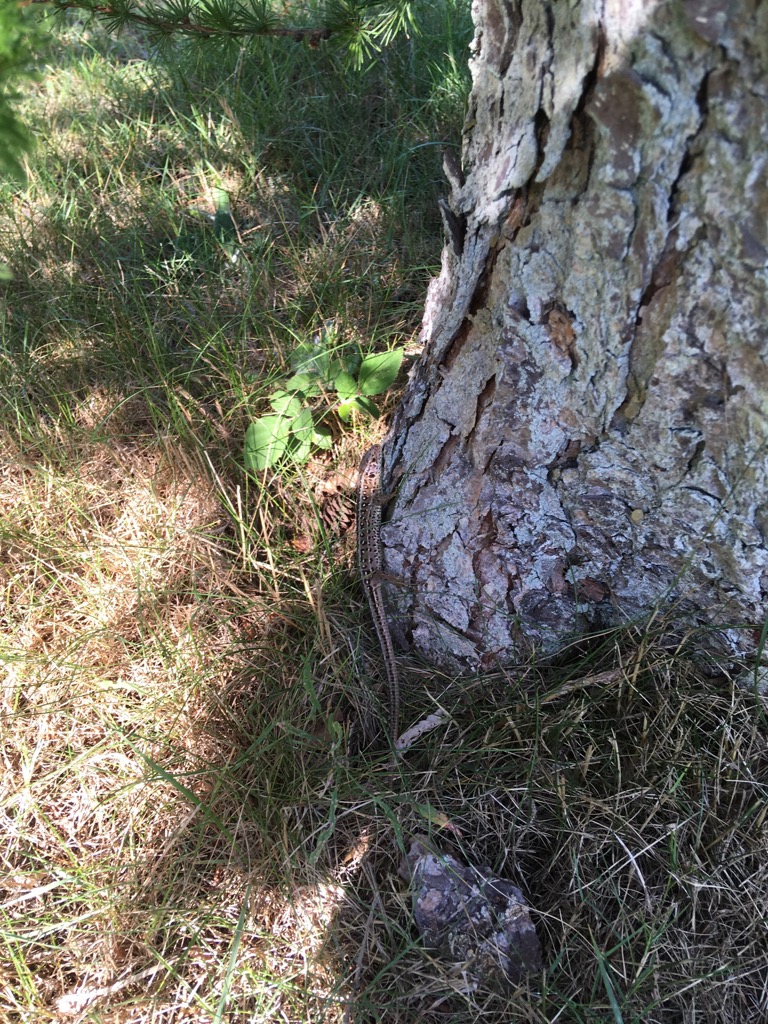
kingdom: Animalia
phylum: Chordata
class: Squamata
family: Lacertidae
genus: Lacerta
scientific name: Lacerta agilis
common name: Markfirben
